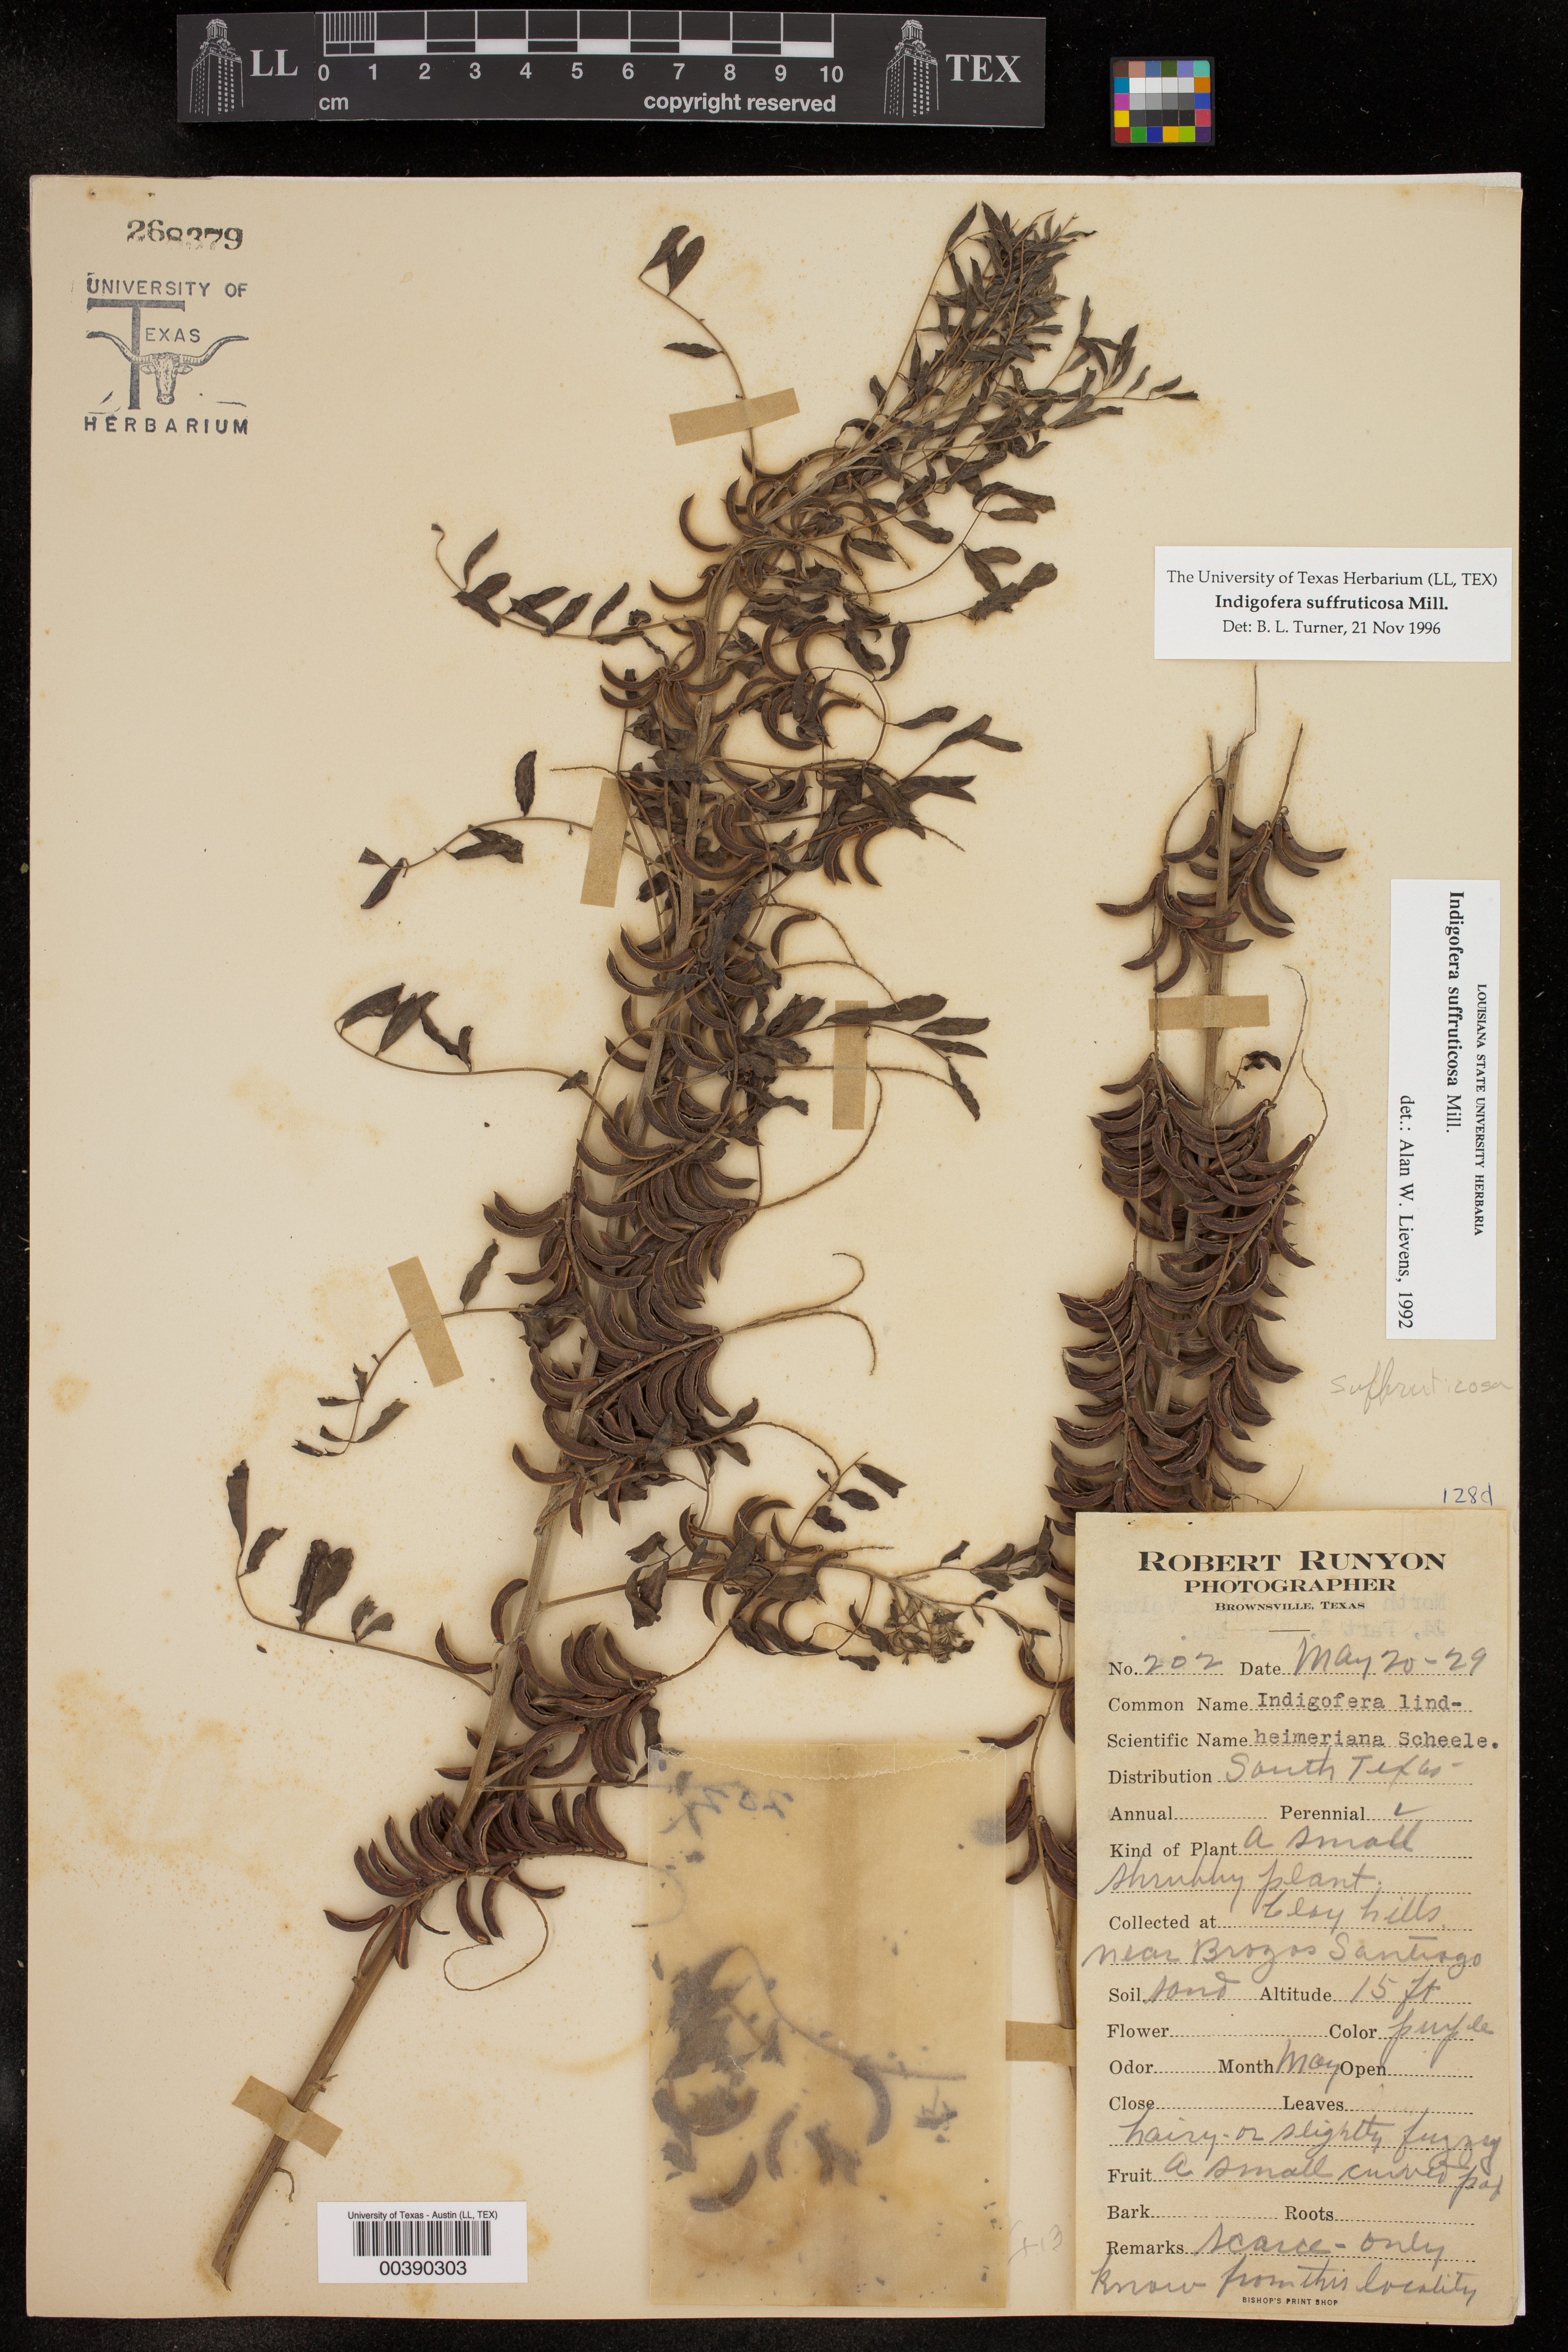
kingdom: Plantae
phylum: Tracheophyta
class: Magnoliopsida
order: Fabales
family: Fabaceae
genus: Indigofera
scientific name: Indigofera suffruticosa
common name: Anil de pasto
